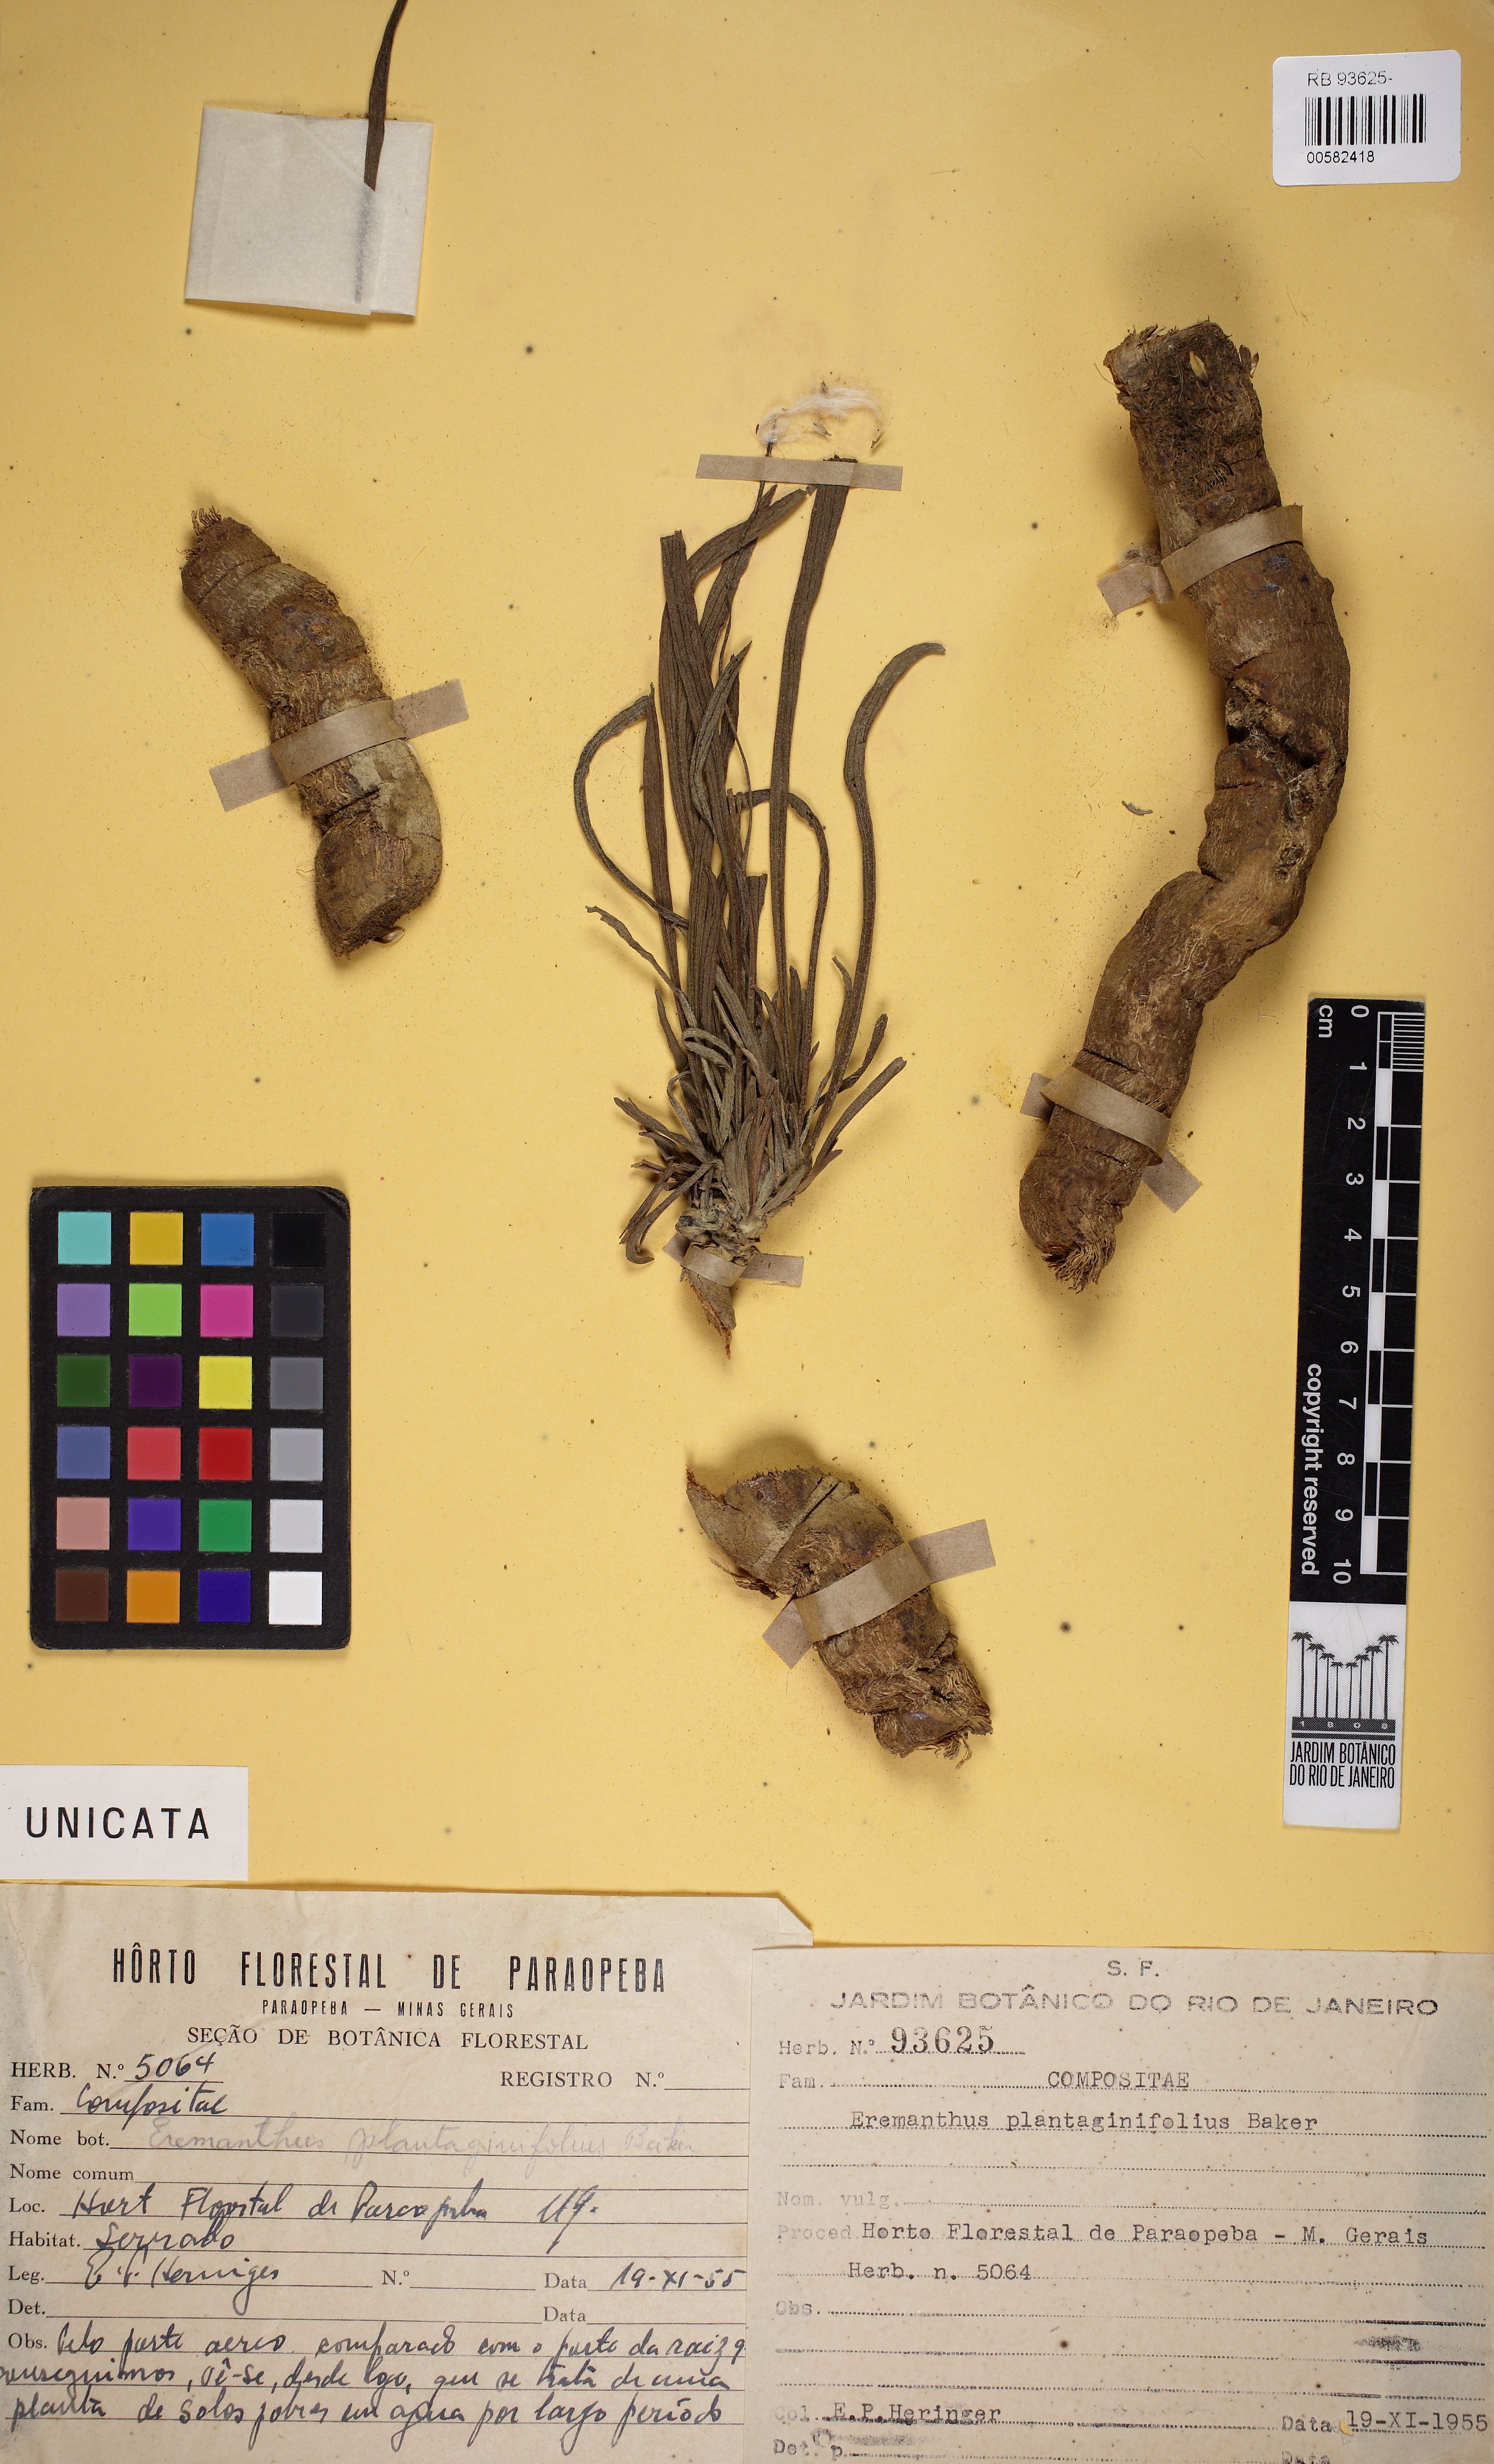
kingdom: Plantae
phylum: Tracheophyta
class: Magnoliopsida
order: Asterales
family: Asteraceae
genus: Chresta
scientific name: Chresta plantaginifolia
